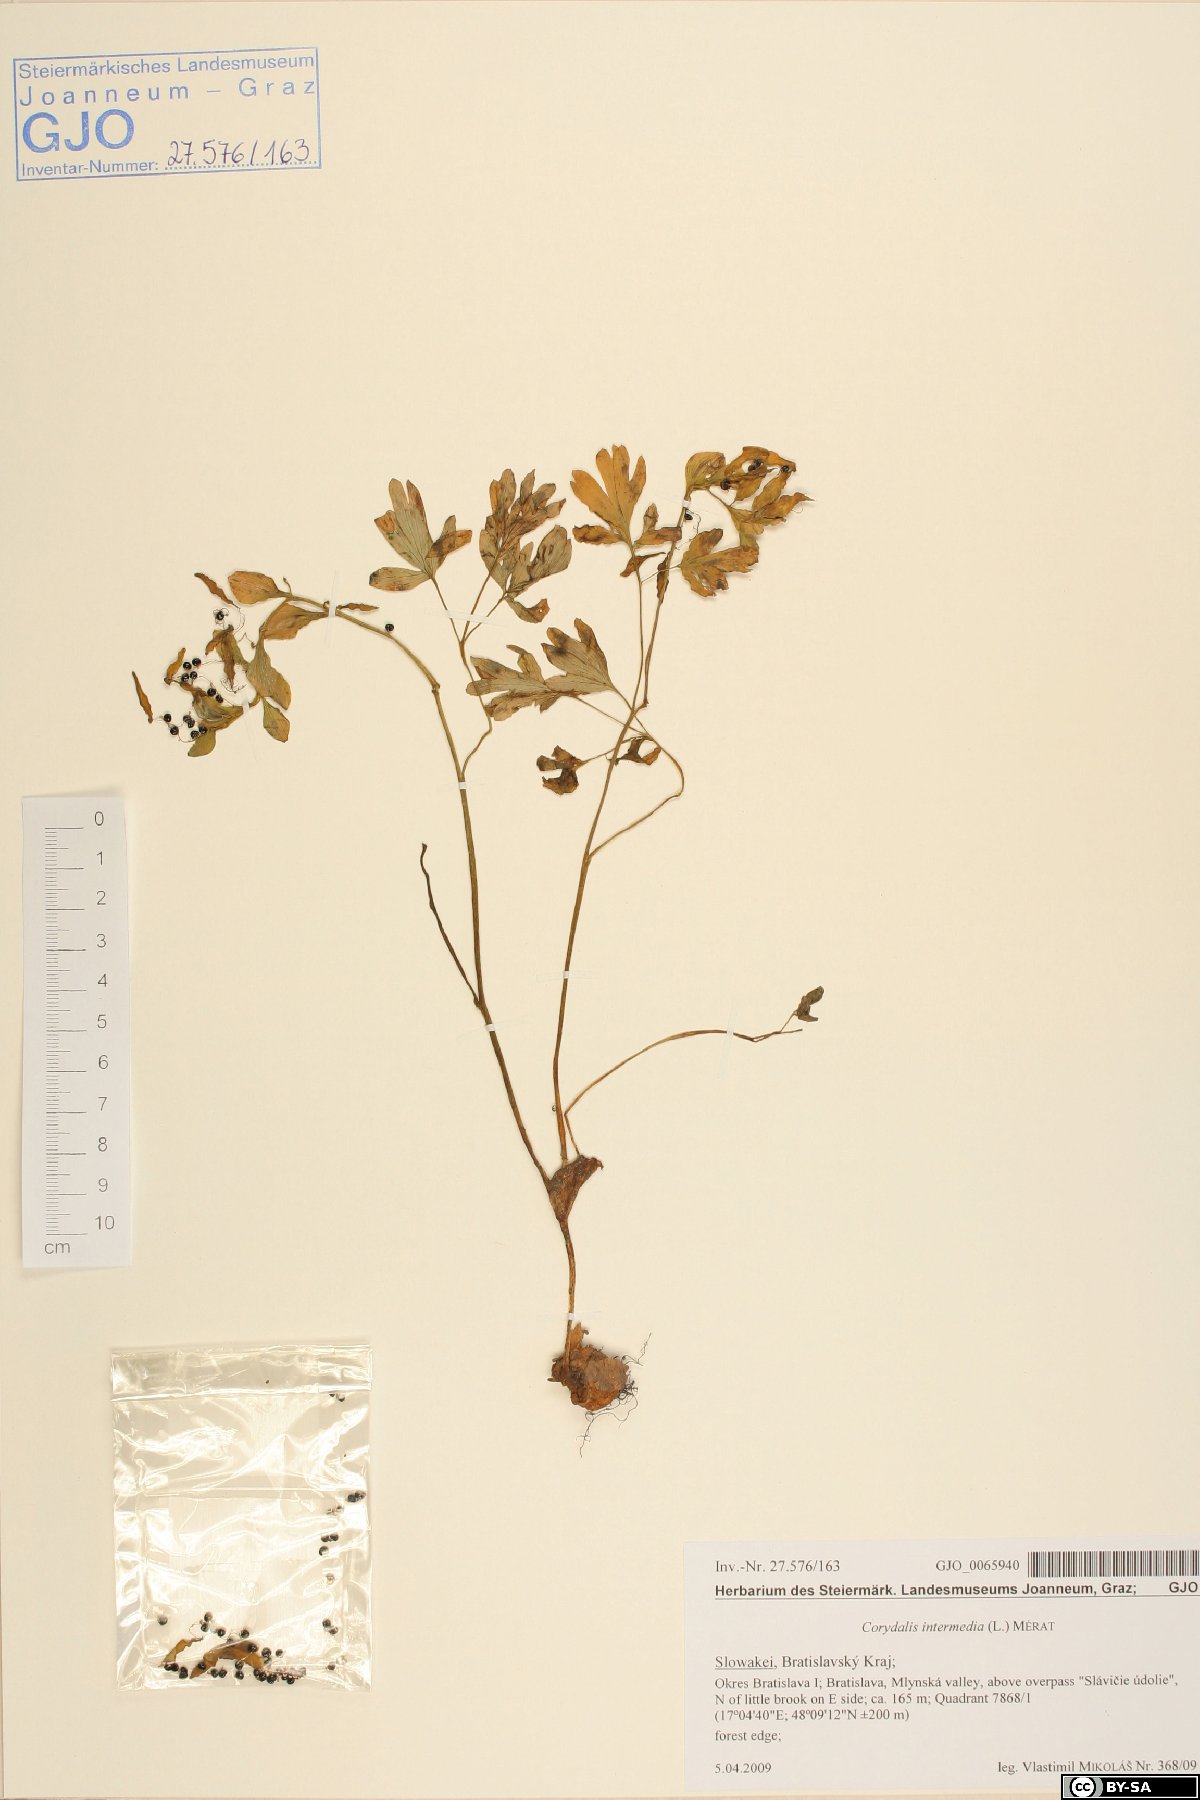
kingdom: Plantae
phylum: Tracheophyta
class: Magnoliopsida
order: Ranunculales
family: Papaveraceae
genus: Corydalis
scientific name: Corydalis intermedia
